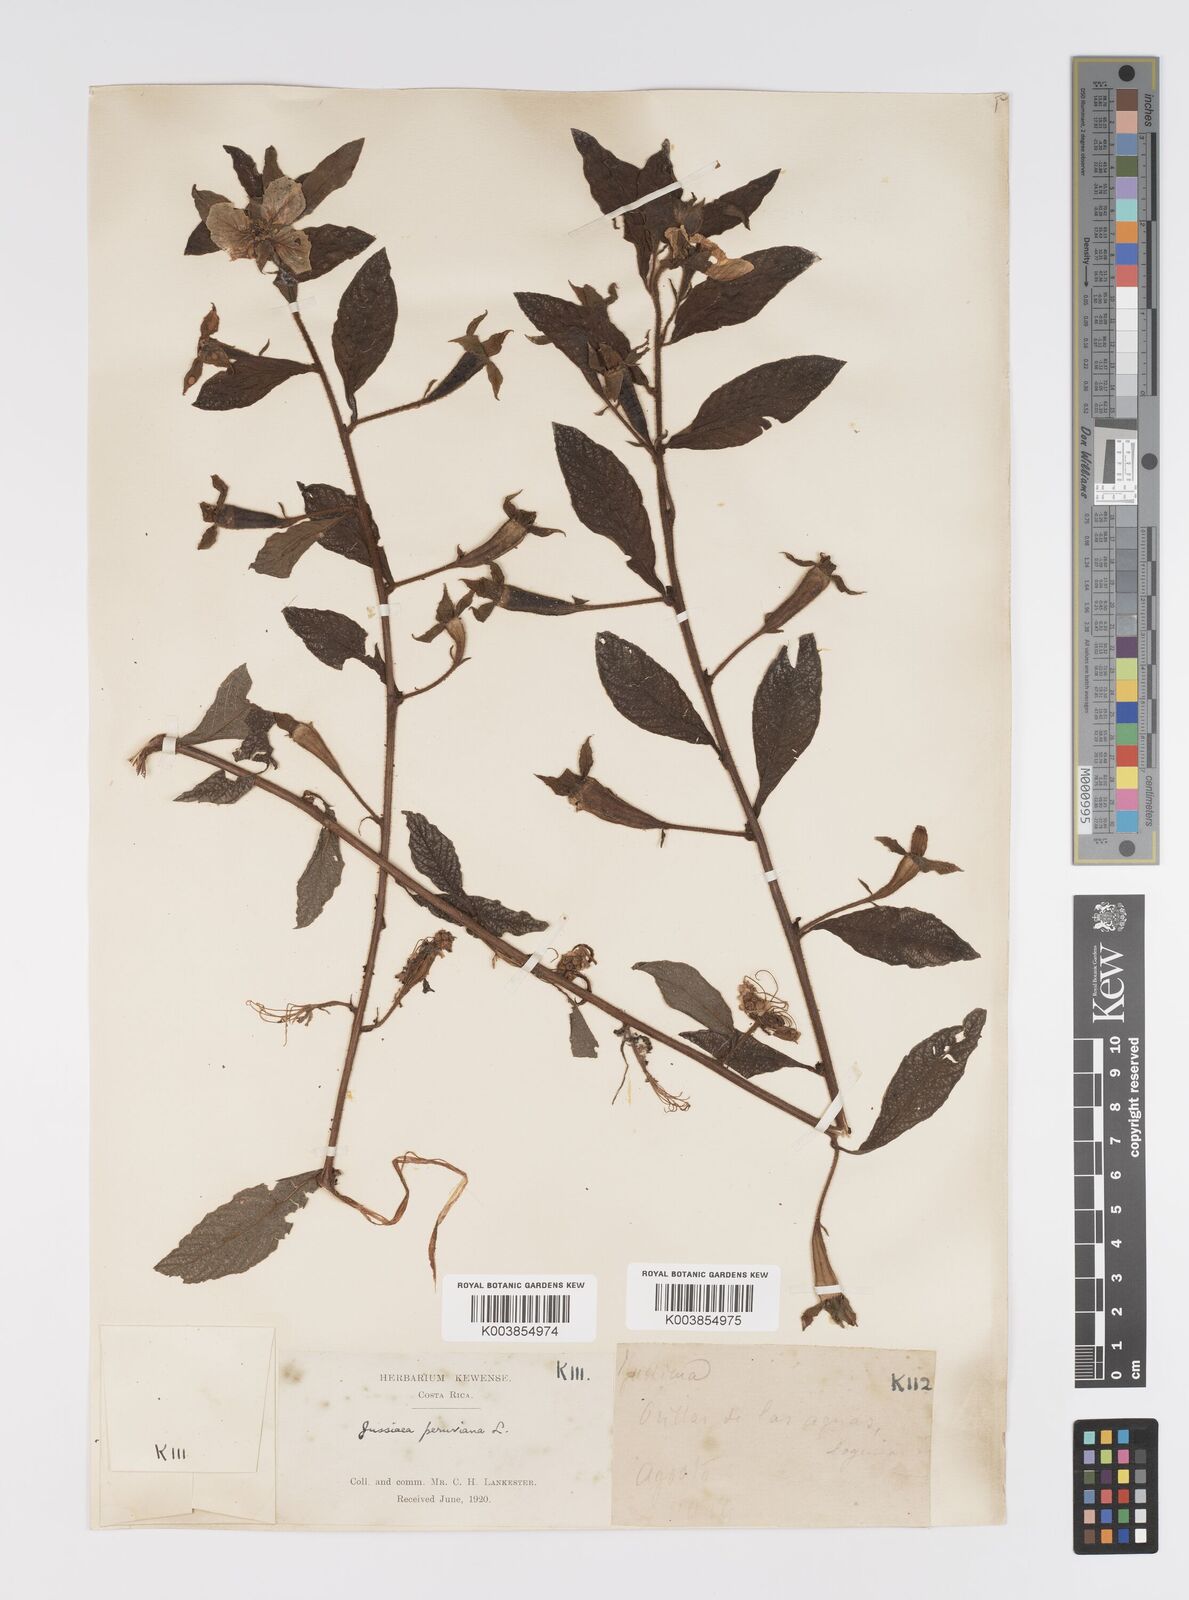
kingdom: Plantae
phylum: Tracheophyta
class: Magnoliopsida
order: Myrtales
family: Onagraceae
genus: Ludwigia
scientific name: Ludwigia peruviana
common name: Peruvian primrose-willow
